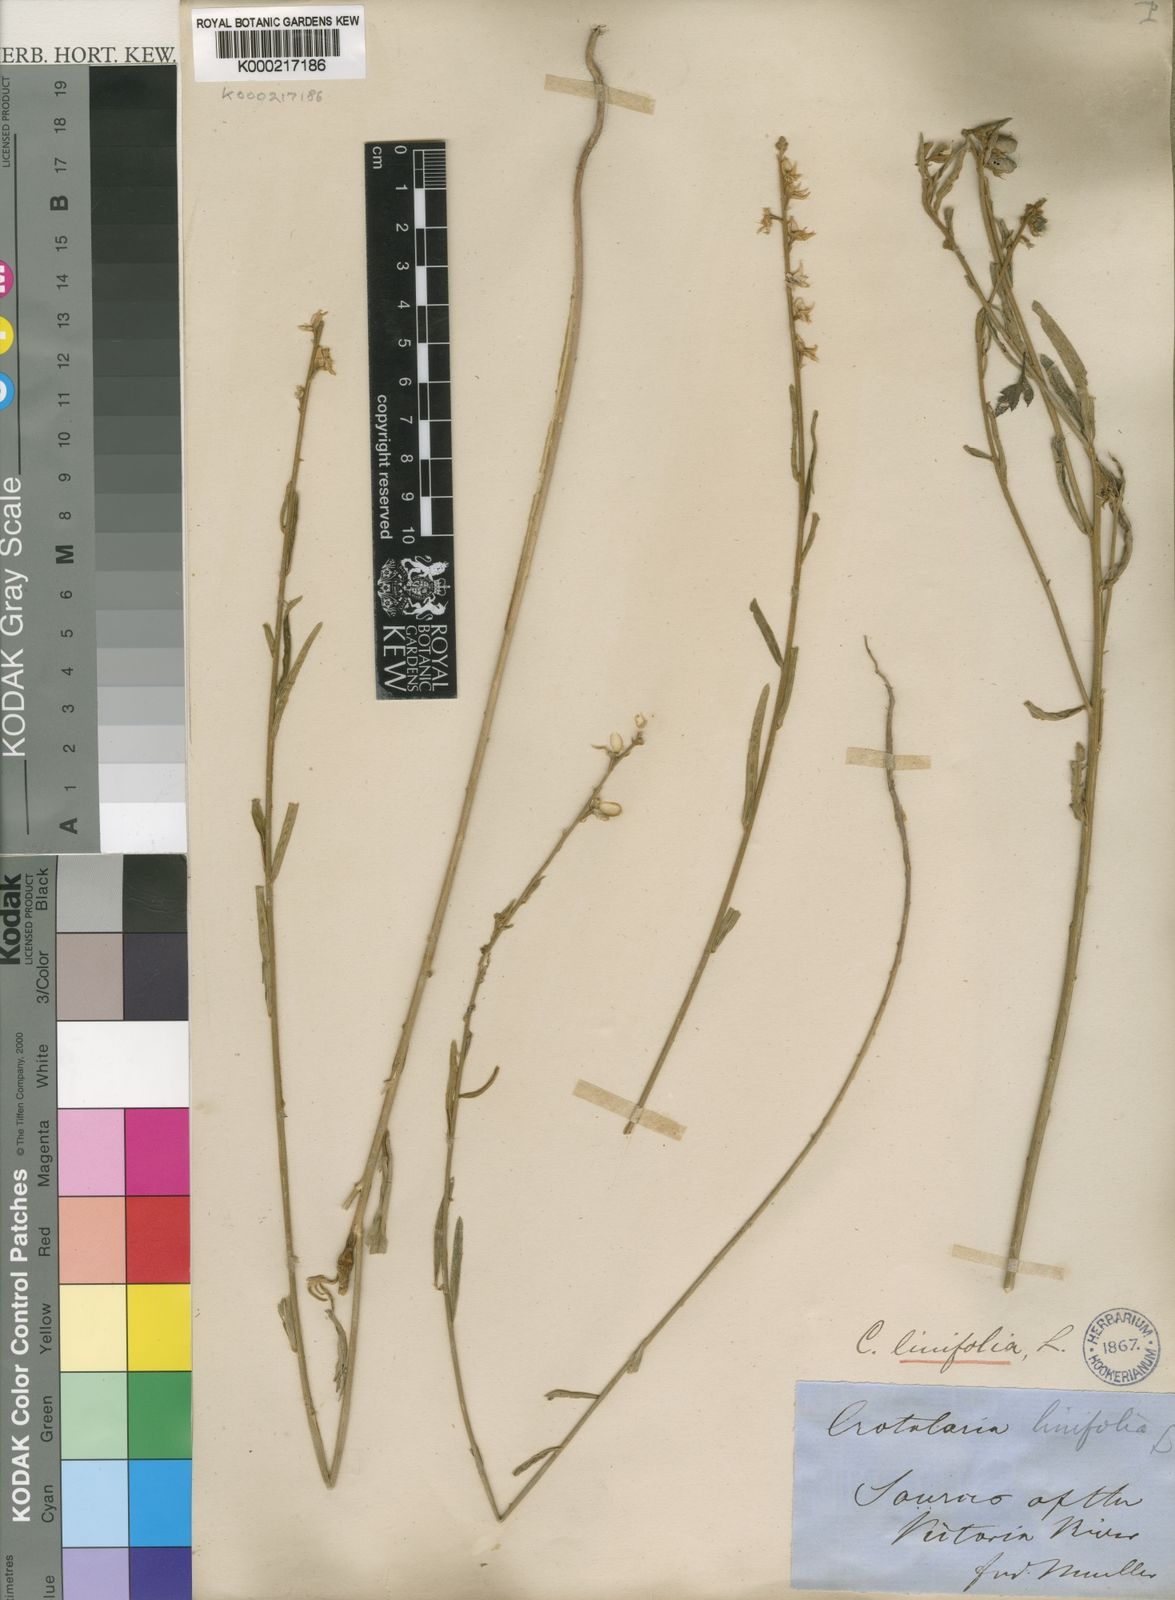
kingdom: Plantae
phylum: Tracheophyta
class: Magnoliopsida
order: Fabales
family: Fabaceae
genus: Crotalaria
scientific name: Crotalaria linifolia
